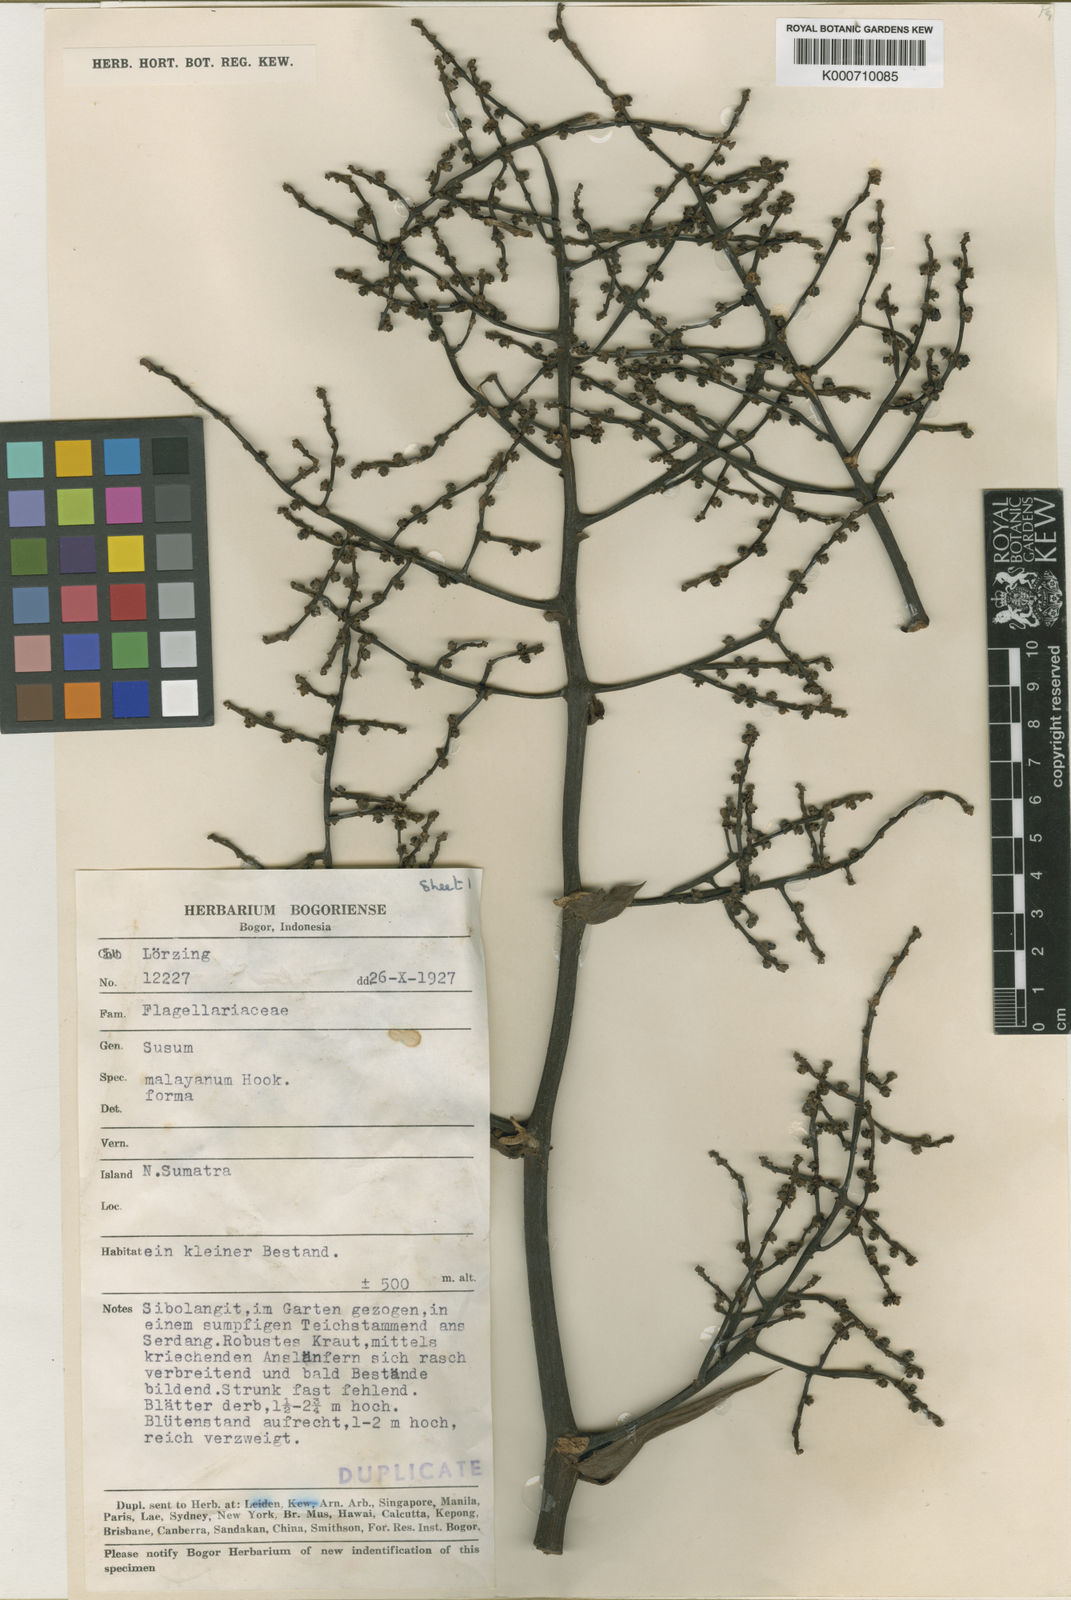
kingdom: Plantae
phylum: Tracheophyta
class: Liliopsida
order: Commelinales
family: Hanguanaceae
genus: Hanguana
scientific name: Hanguana malayana
